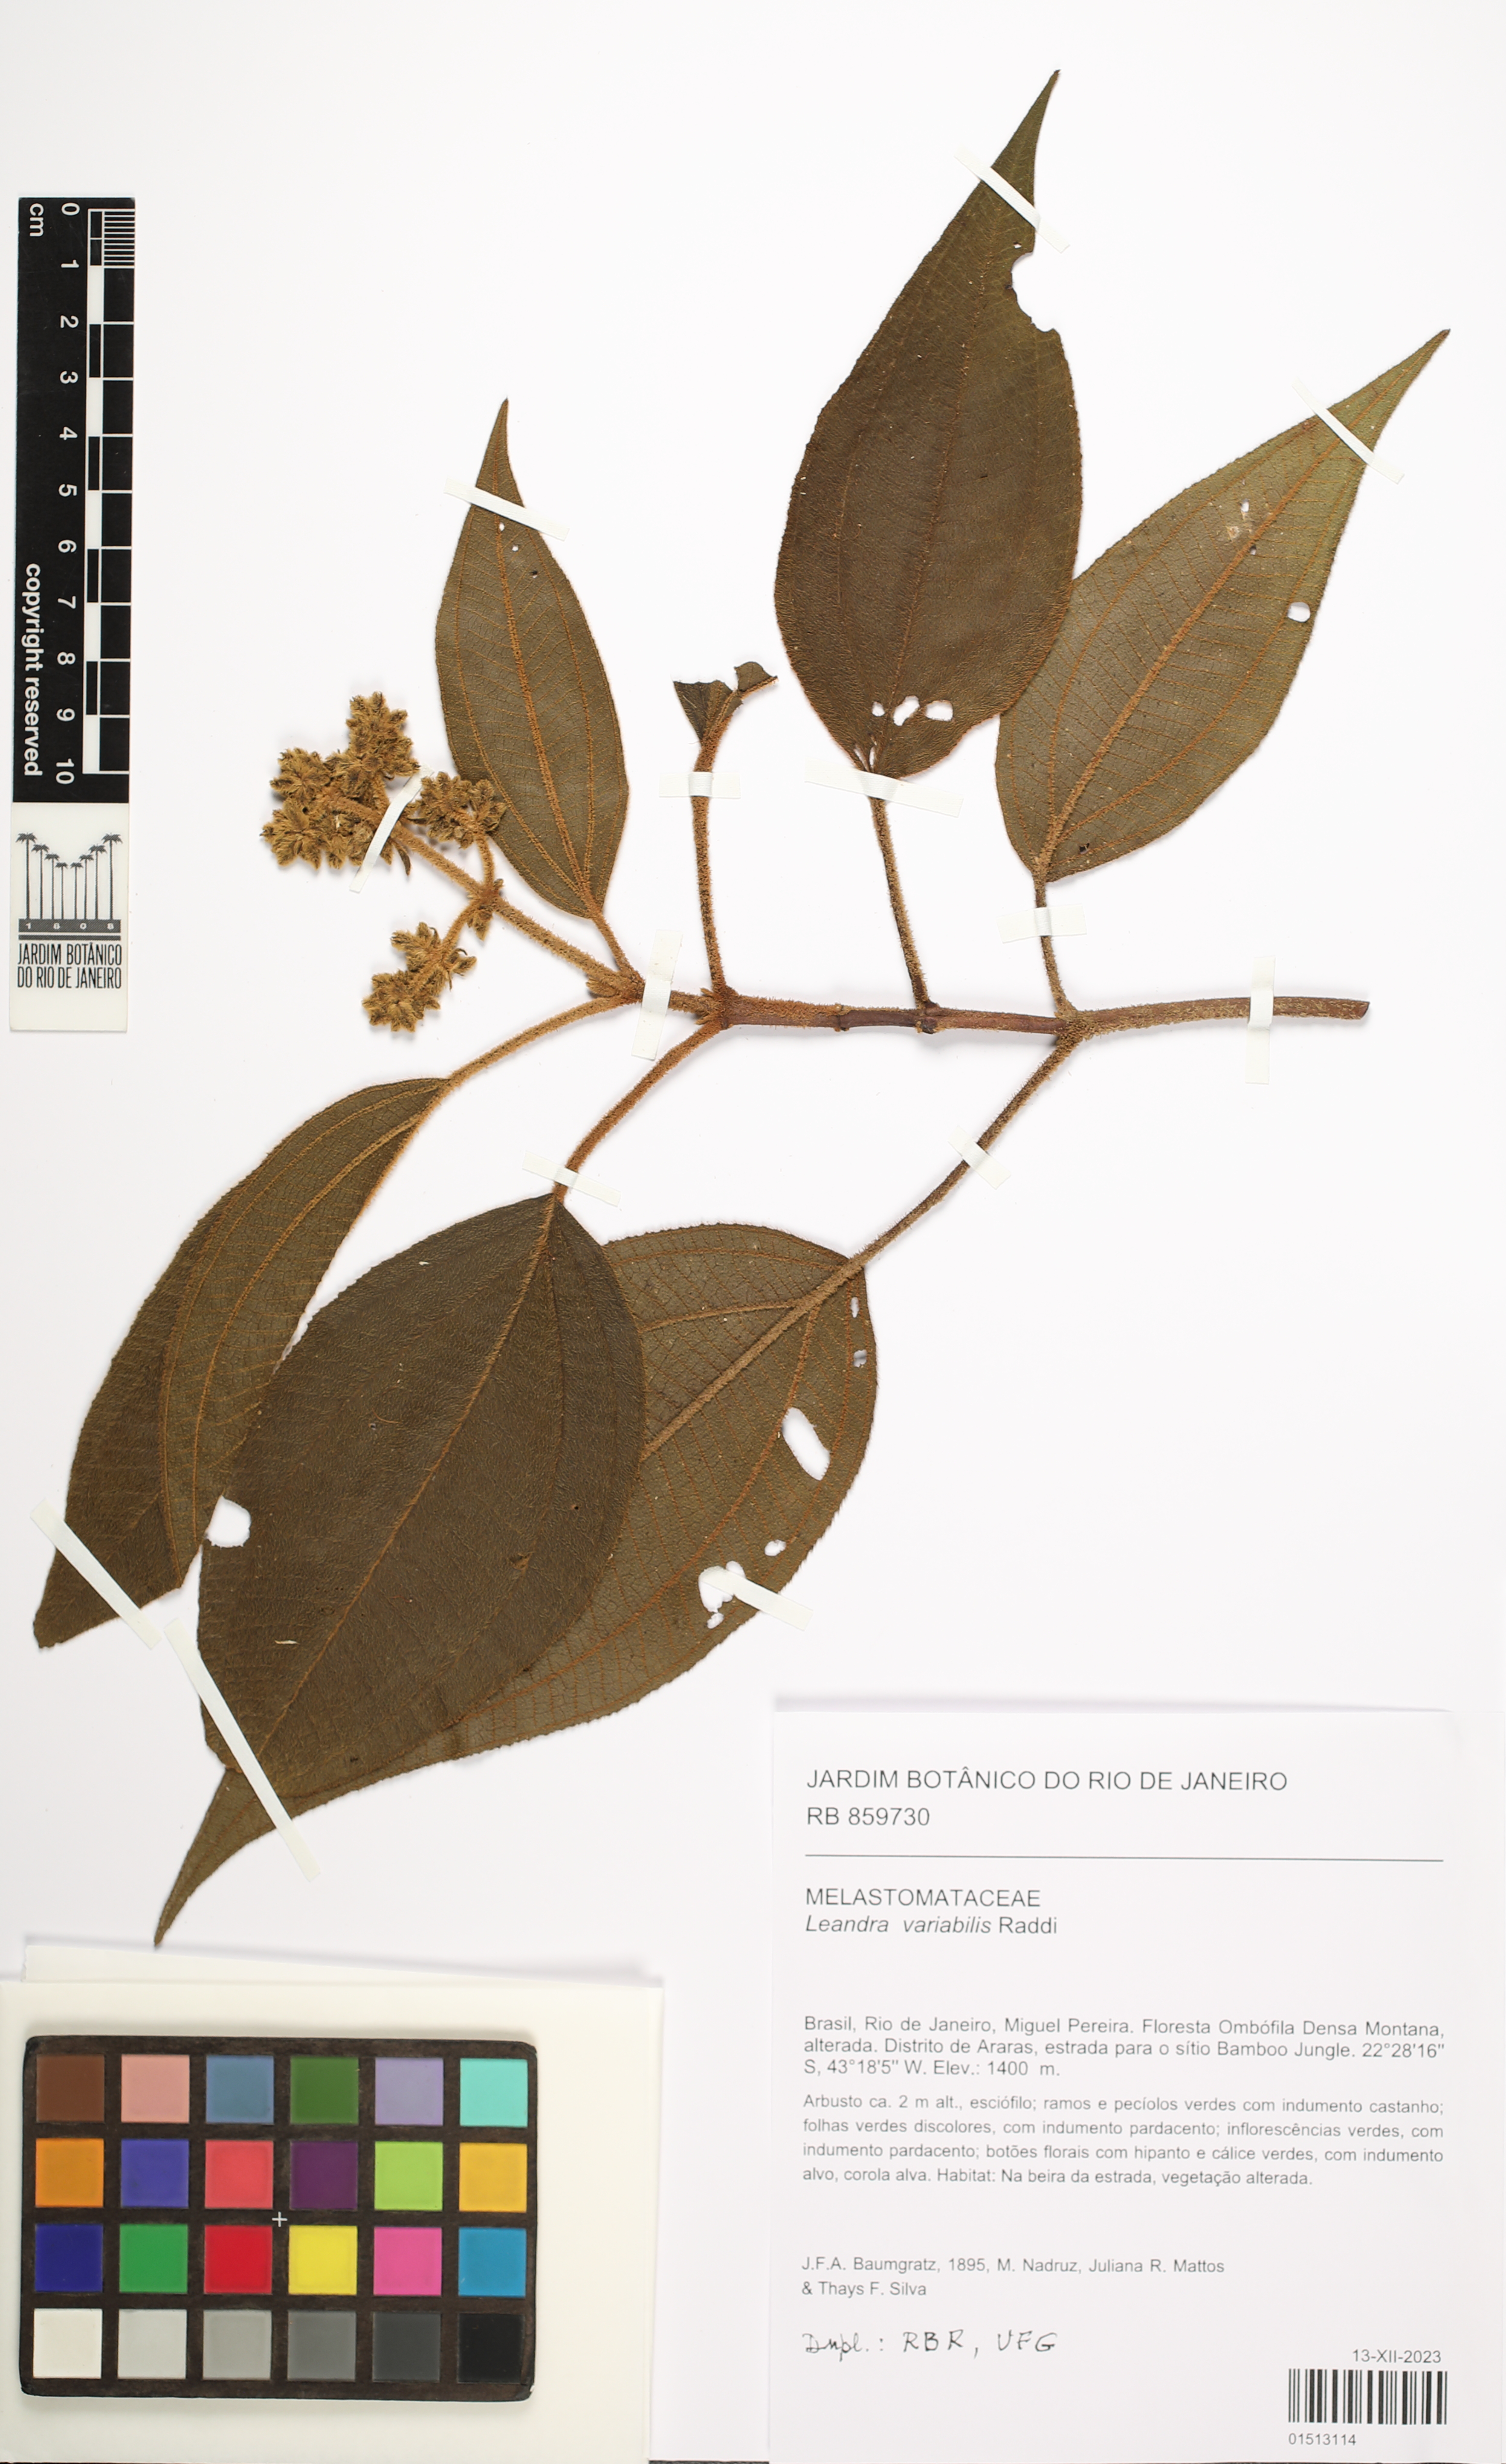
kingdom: Plantae
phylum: Tracheophyta
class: Magnoliopsida
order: Myrtales
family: Melastomataceae
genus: Miconia
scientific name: Miconia dasytricha
